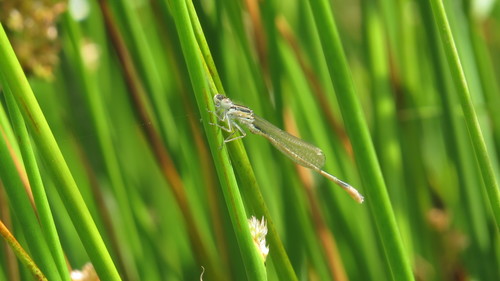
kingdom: Animalia
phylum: Arthropoda
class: Insecta
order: Odonata
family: Coenagrionidae
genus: Ischnura
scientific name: Ischnura graellsii
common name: Iberian bluetail
